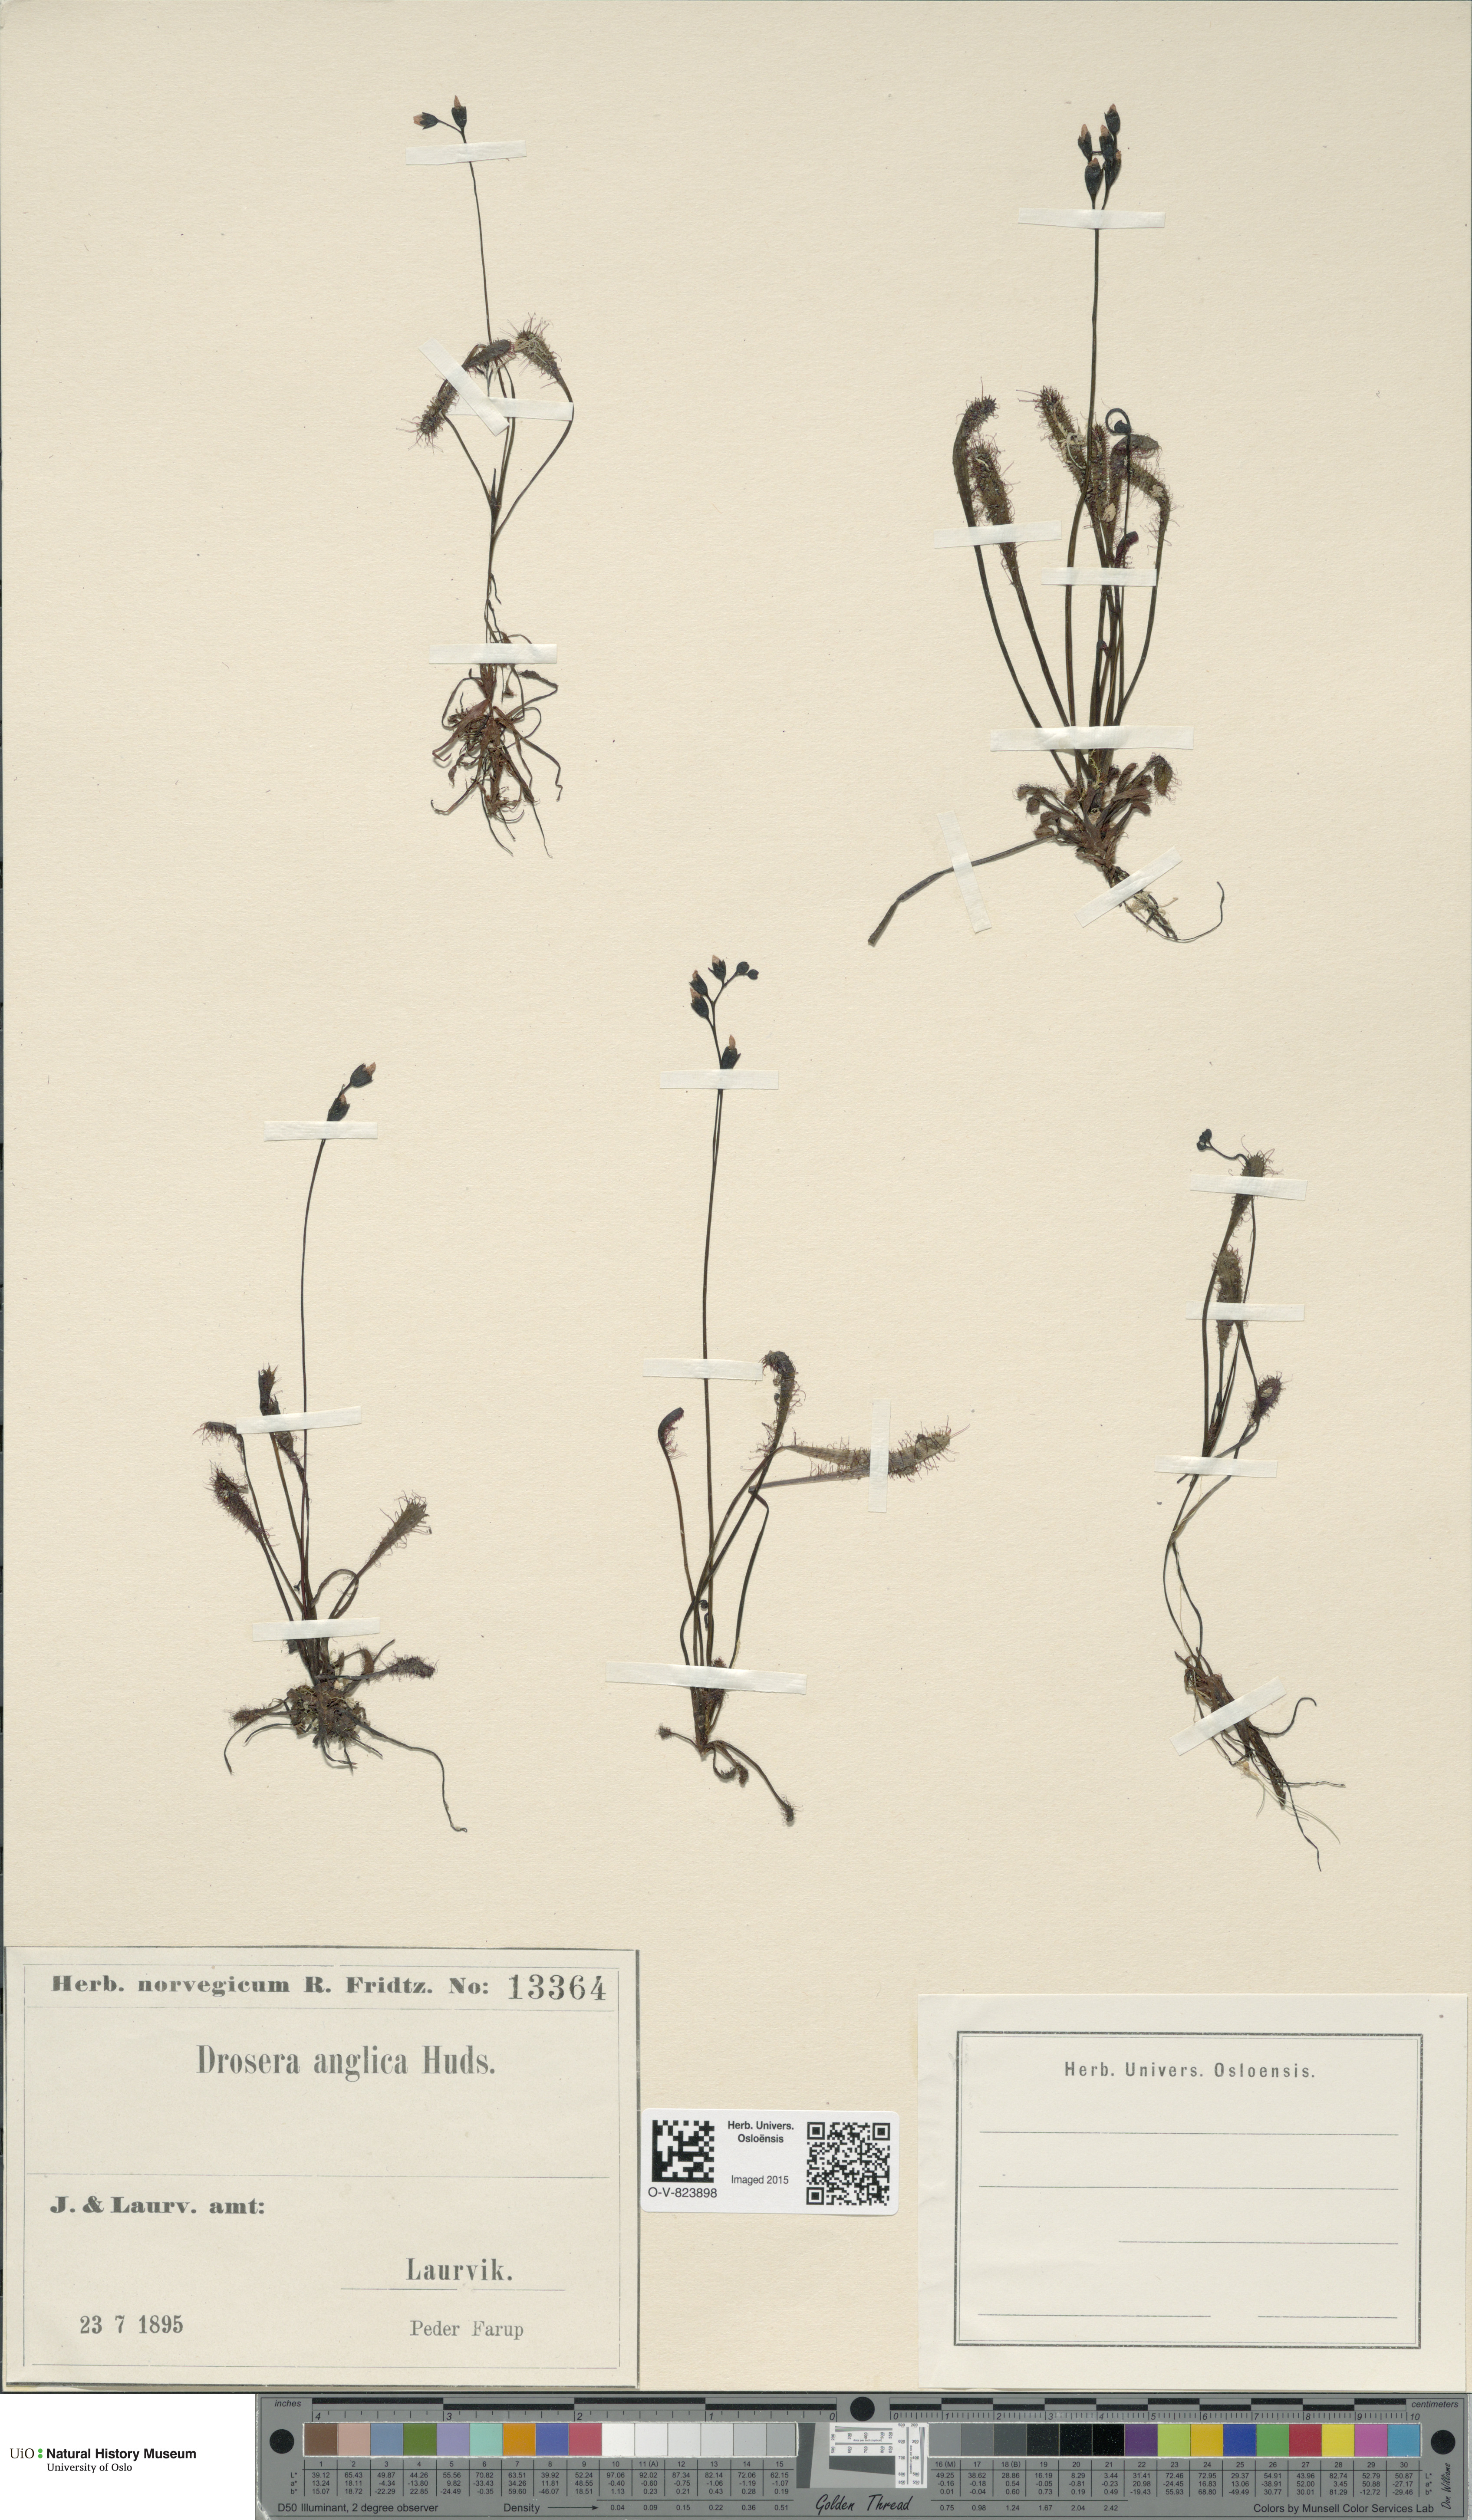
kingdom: Plantae
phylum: Tracheophyta
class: Magnoliopsida
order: Caryophyllales
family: Droseraceae
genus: Drosera
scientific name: Drosera anglica
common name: Great sundew
